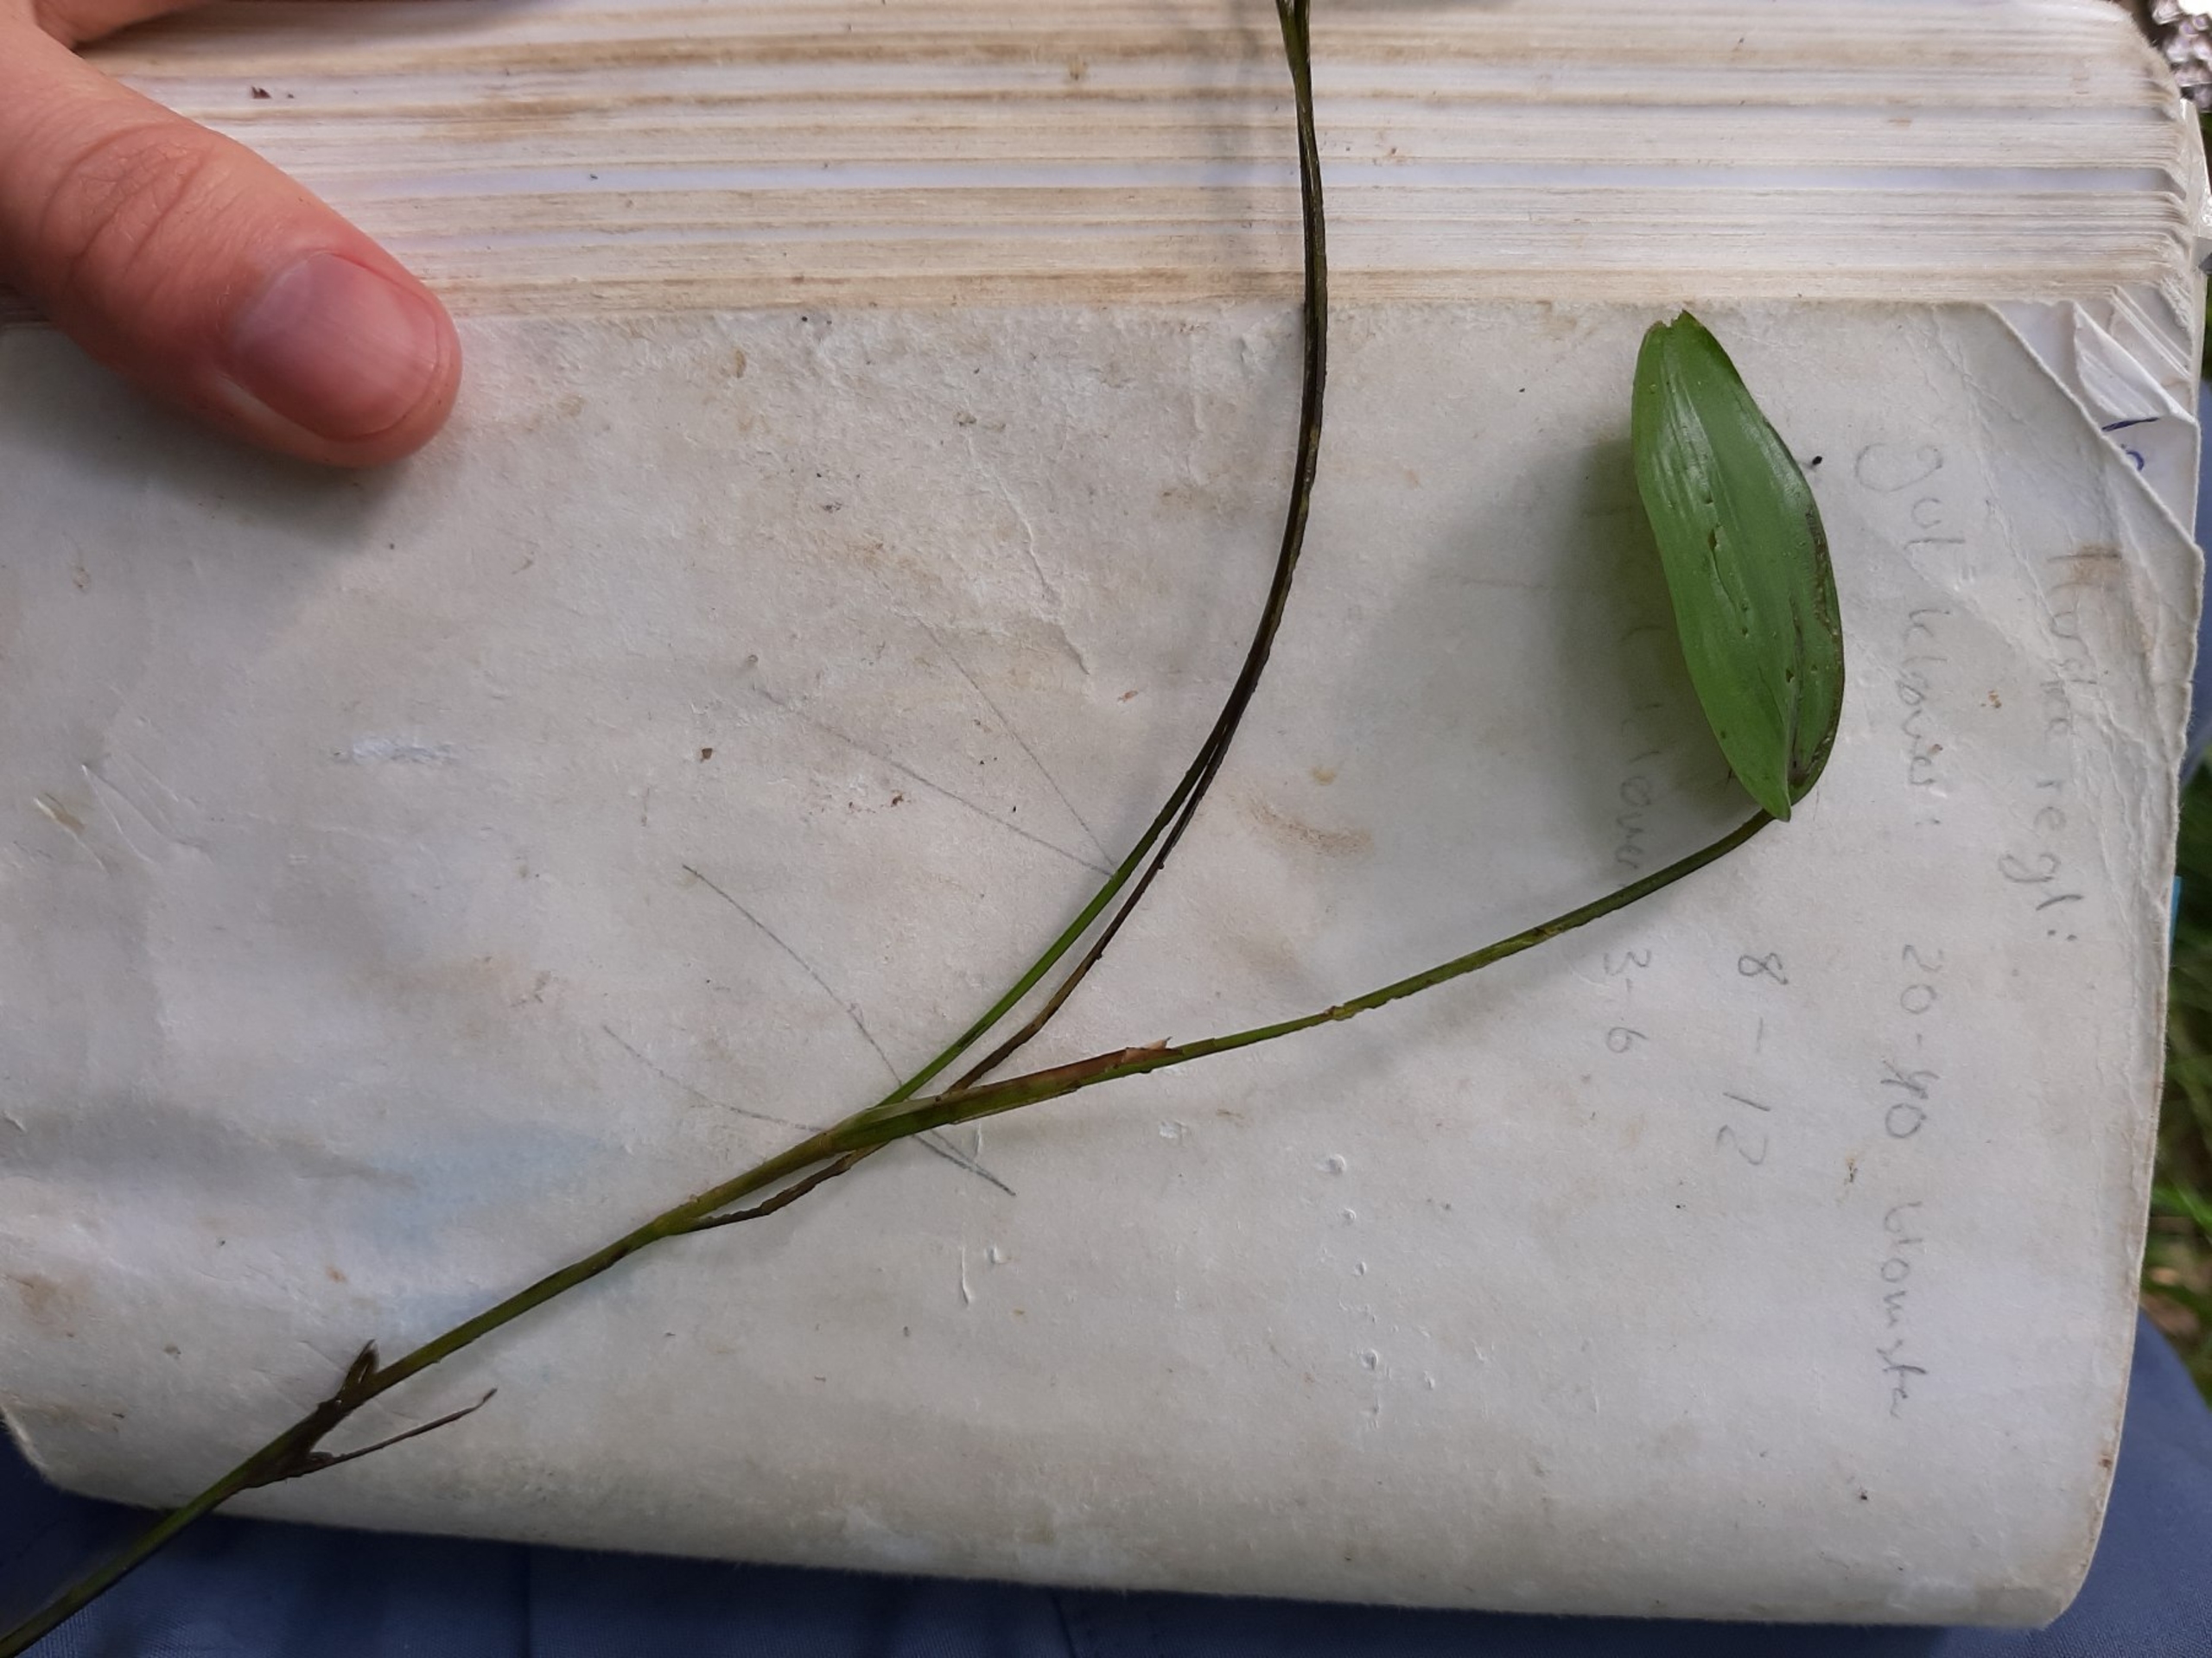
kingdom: Plantae
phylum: Tracheophyta
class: Liliopsida
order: Alismatales
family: Potamogetonaceae
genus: Potamogeton
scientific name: Potamogeton natans
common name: Svømmende vandaks
